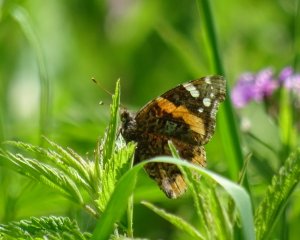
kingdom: Animalia
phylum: Arthropoda
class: Insecta
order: Lepidoptera
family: Nymphalidae
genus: Vanessa
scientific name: Vanessa atalanta
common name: Red Admiral
